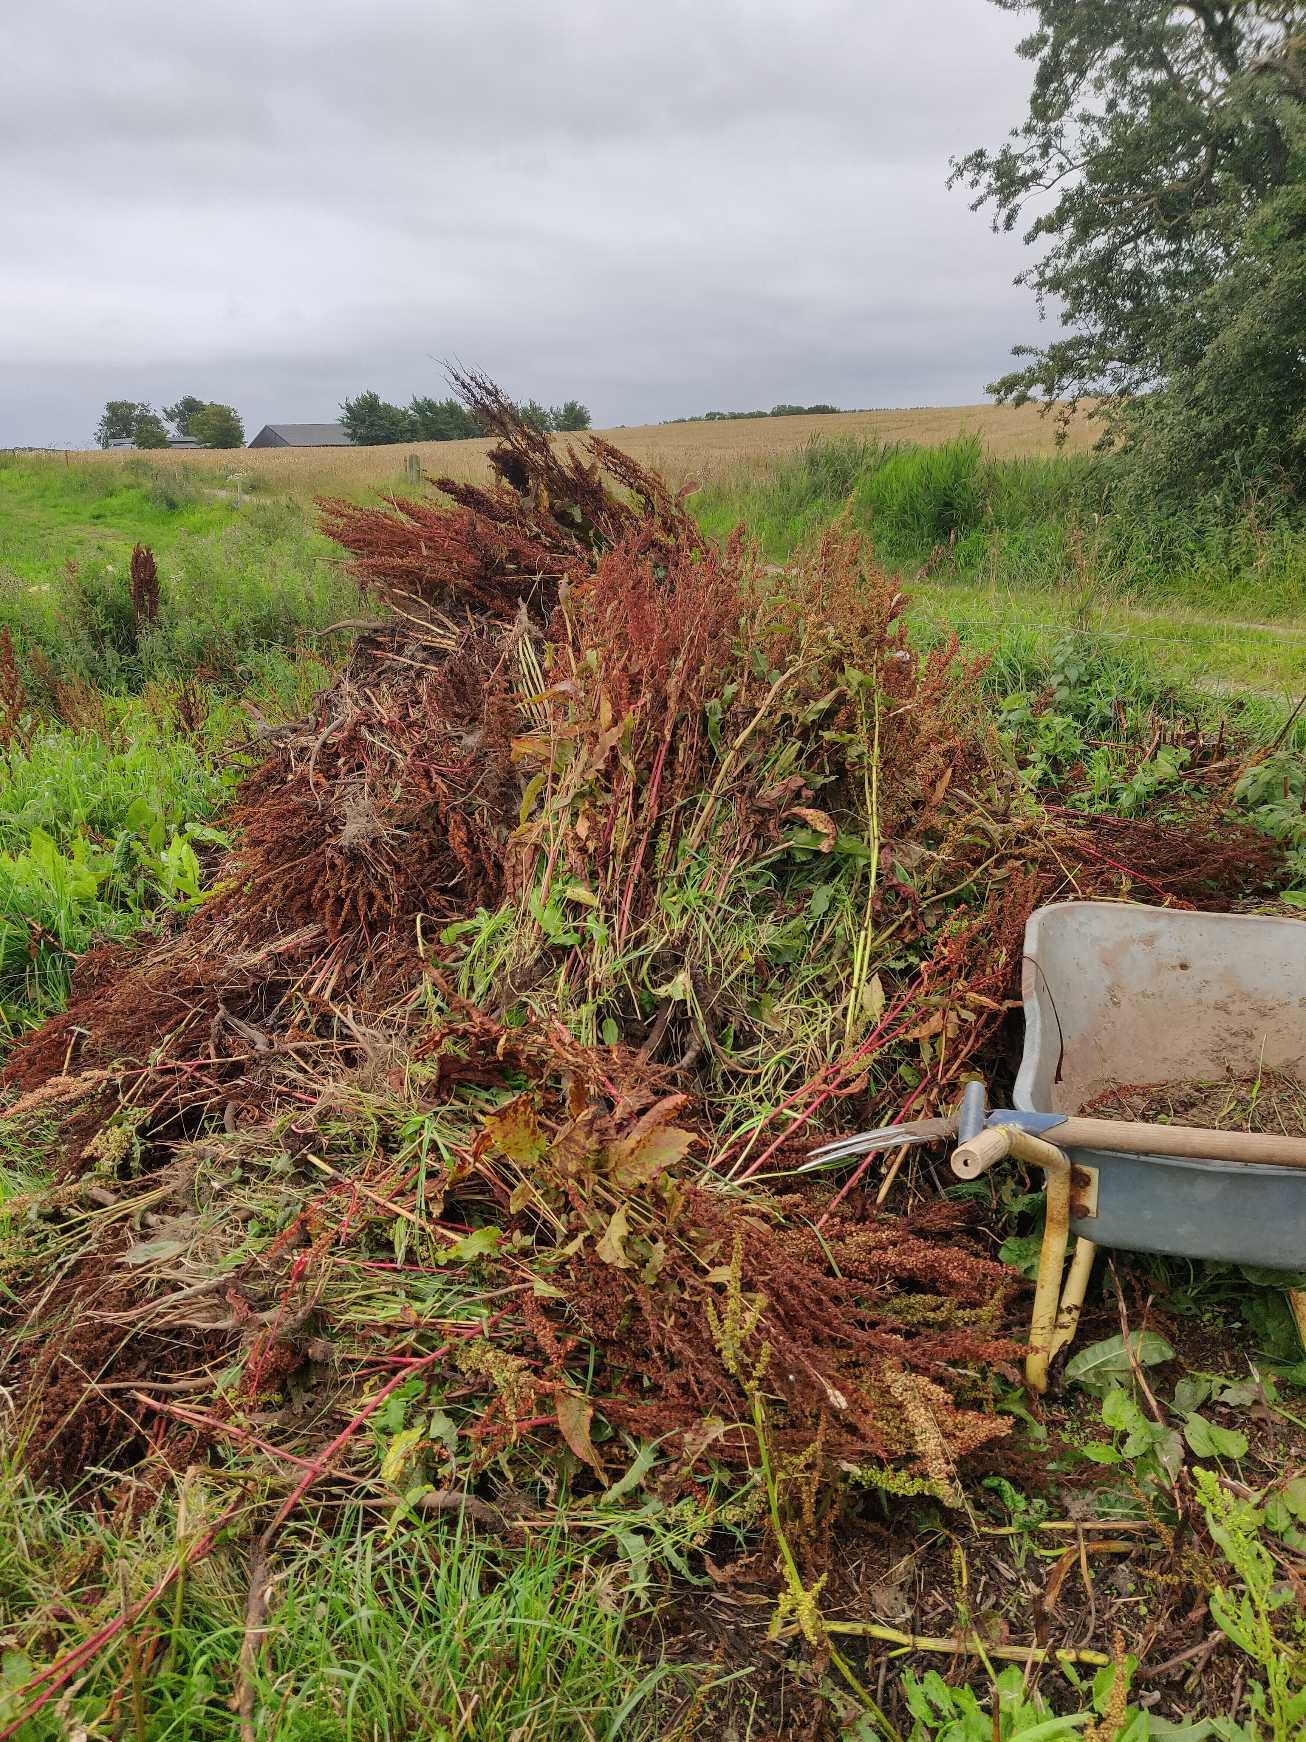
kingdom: Plantae
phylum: Tracheophyta
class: Magnoliopsida
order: Caryophyllales
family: Polygonaceae
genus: Rumex
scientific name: Rumex
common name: Skræppeslægten
